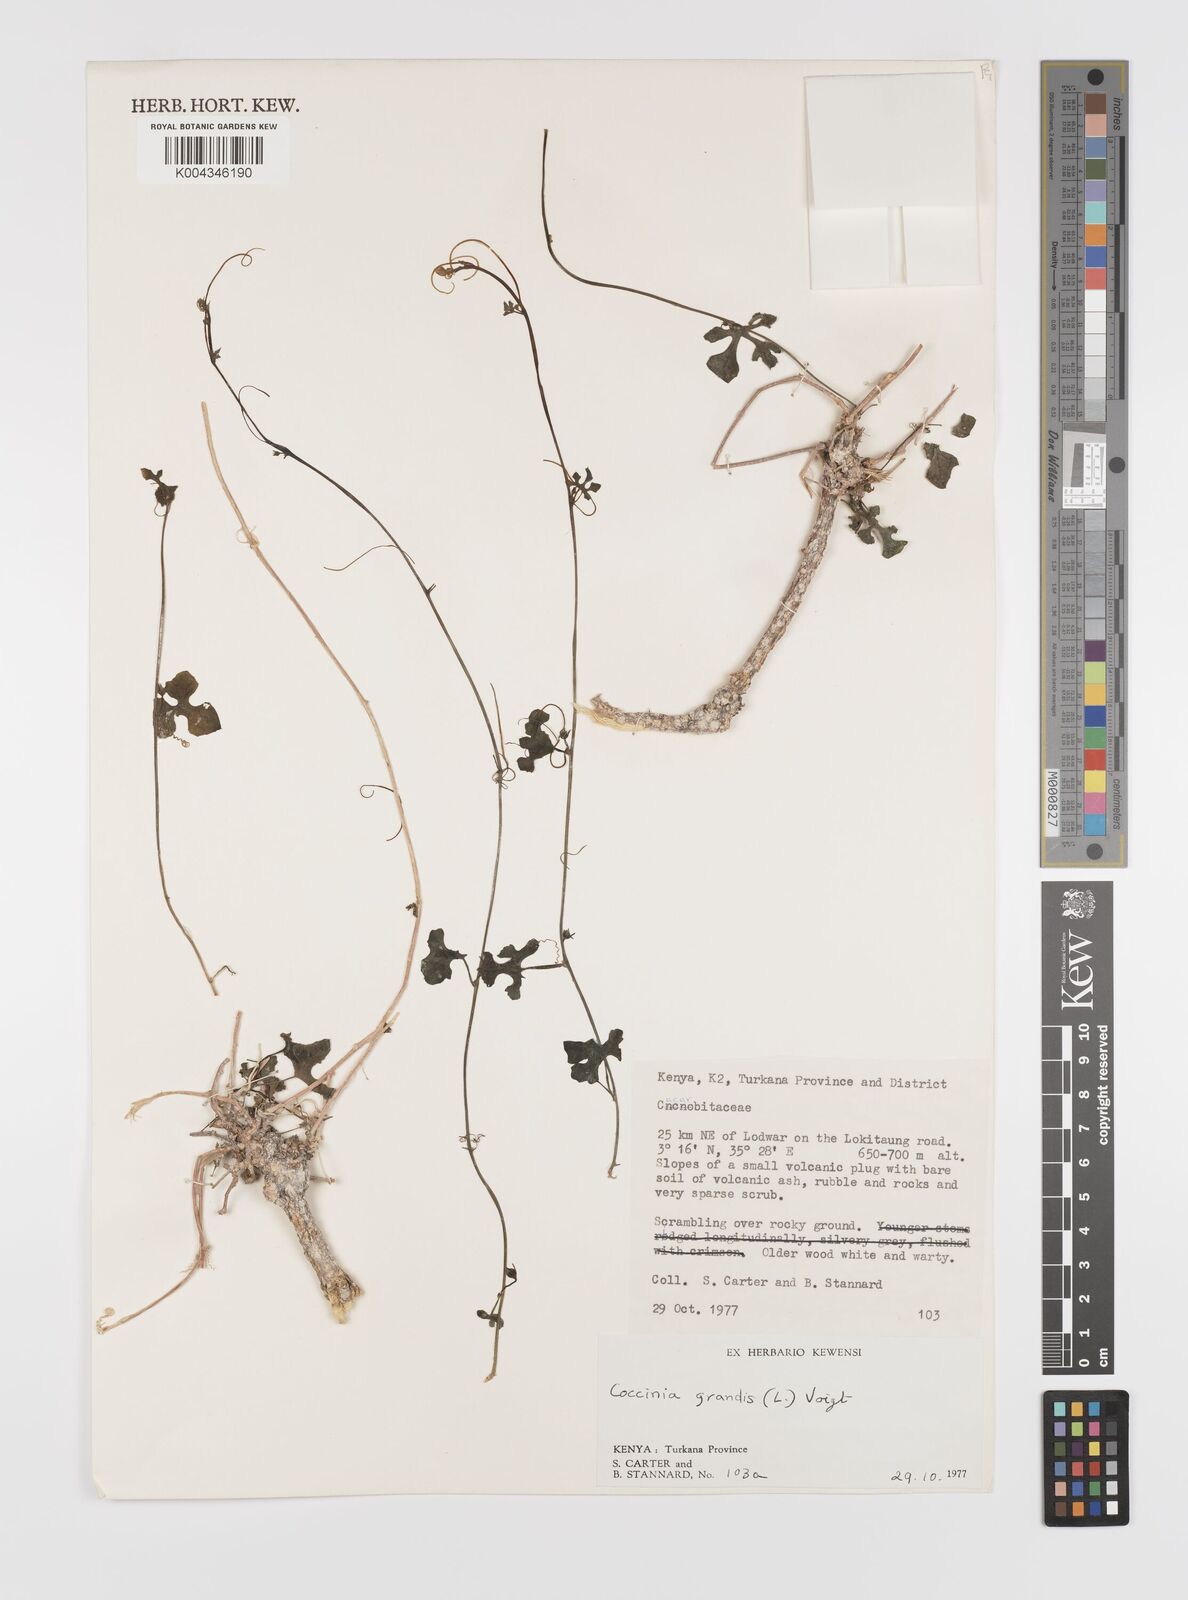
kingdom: Plantae
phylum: Tracheophyta
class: Magnoliopsida
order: Cucurbitales
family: Cucurbitaceae
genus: Coccinia
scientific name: Coccinia grandis
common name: Ivy gourd
